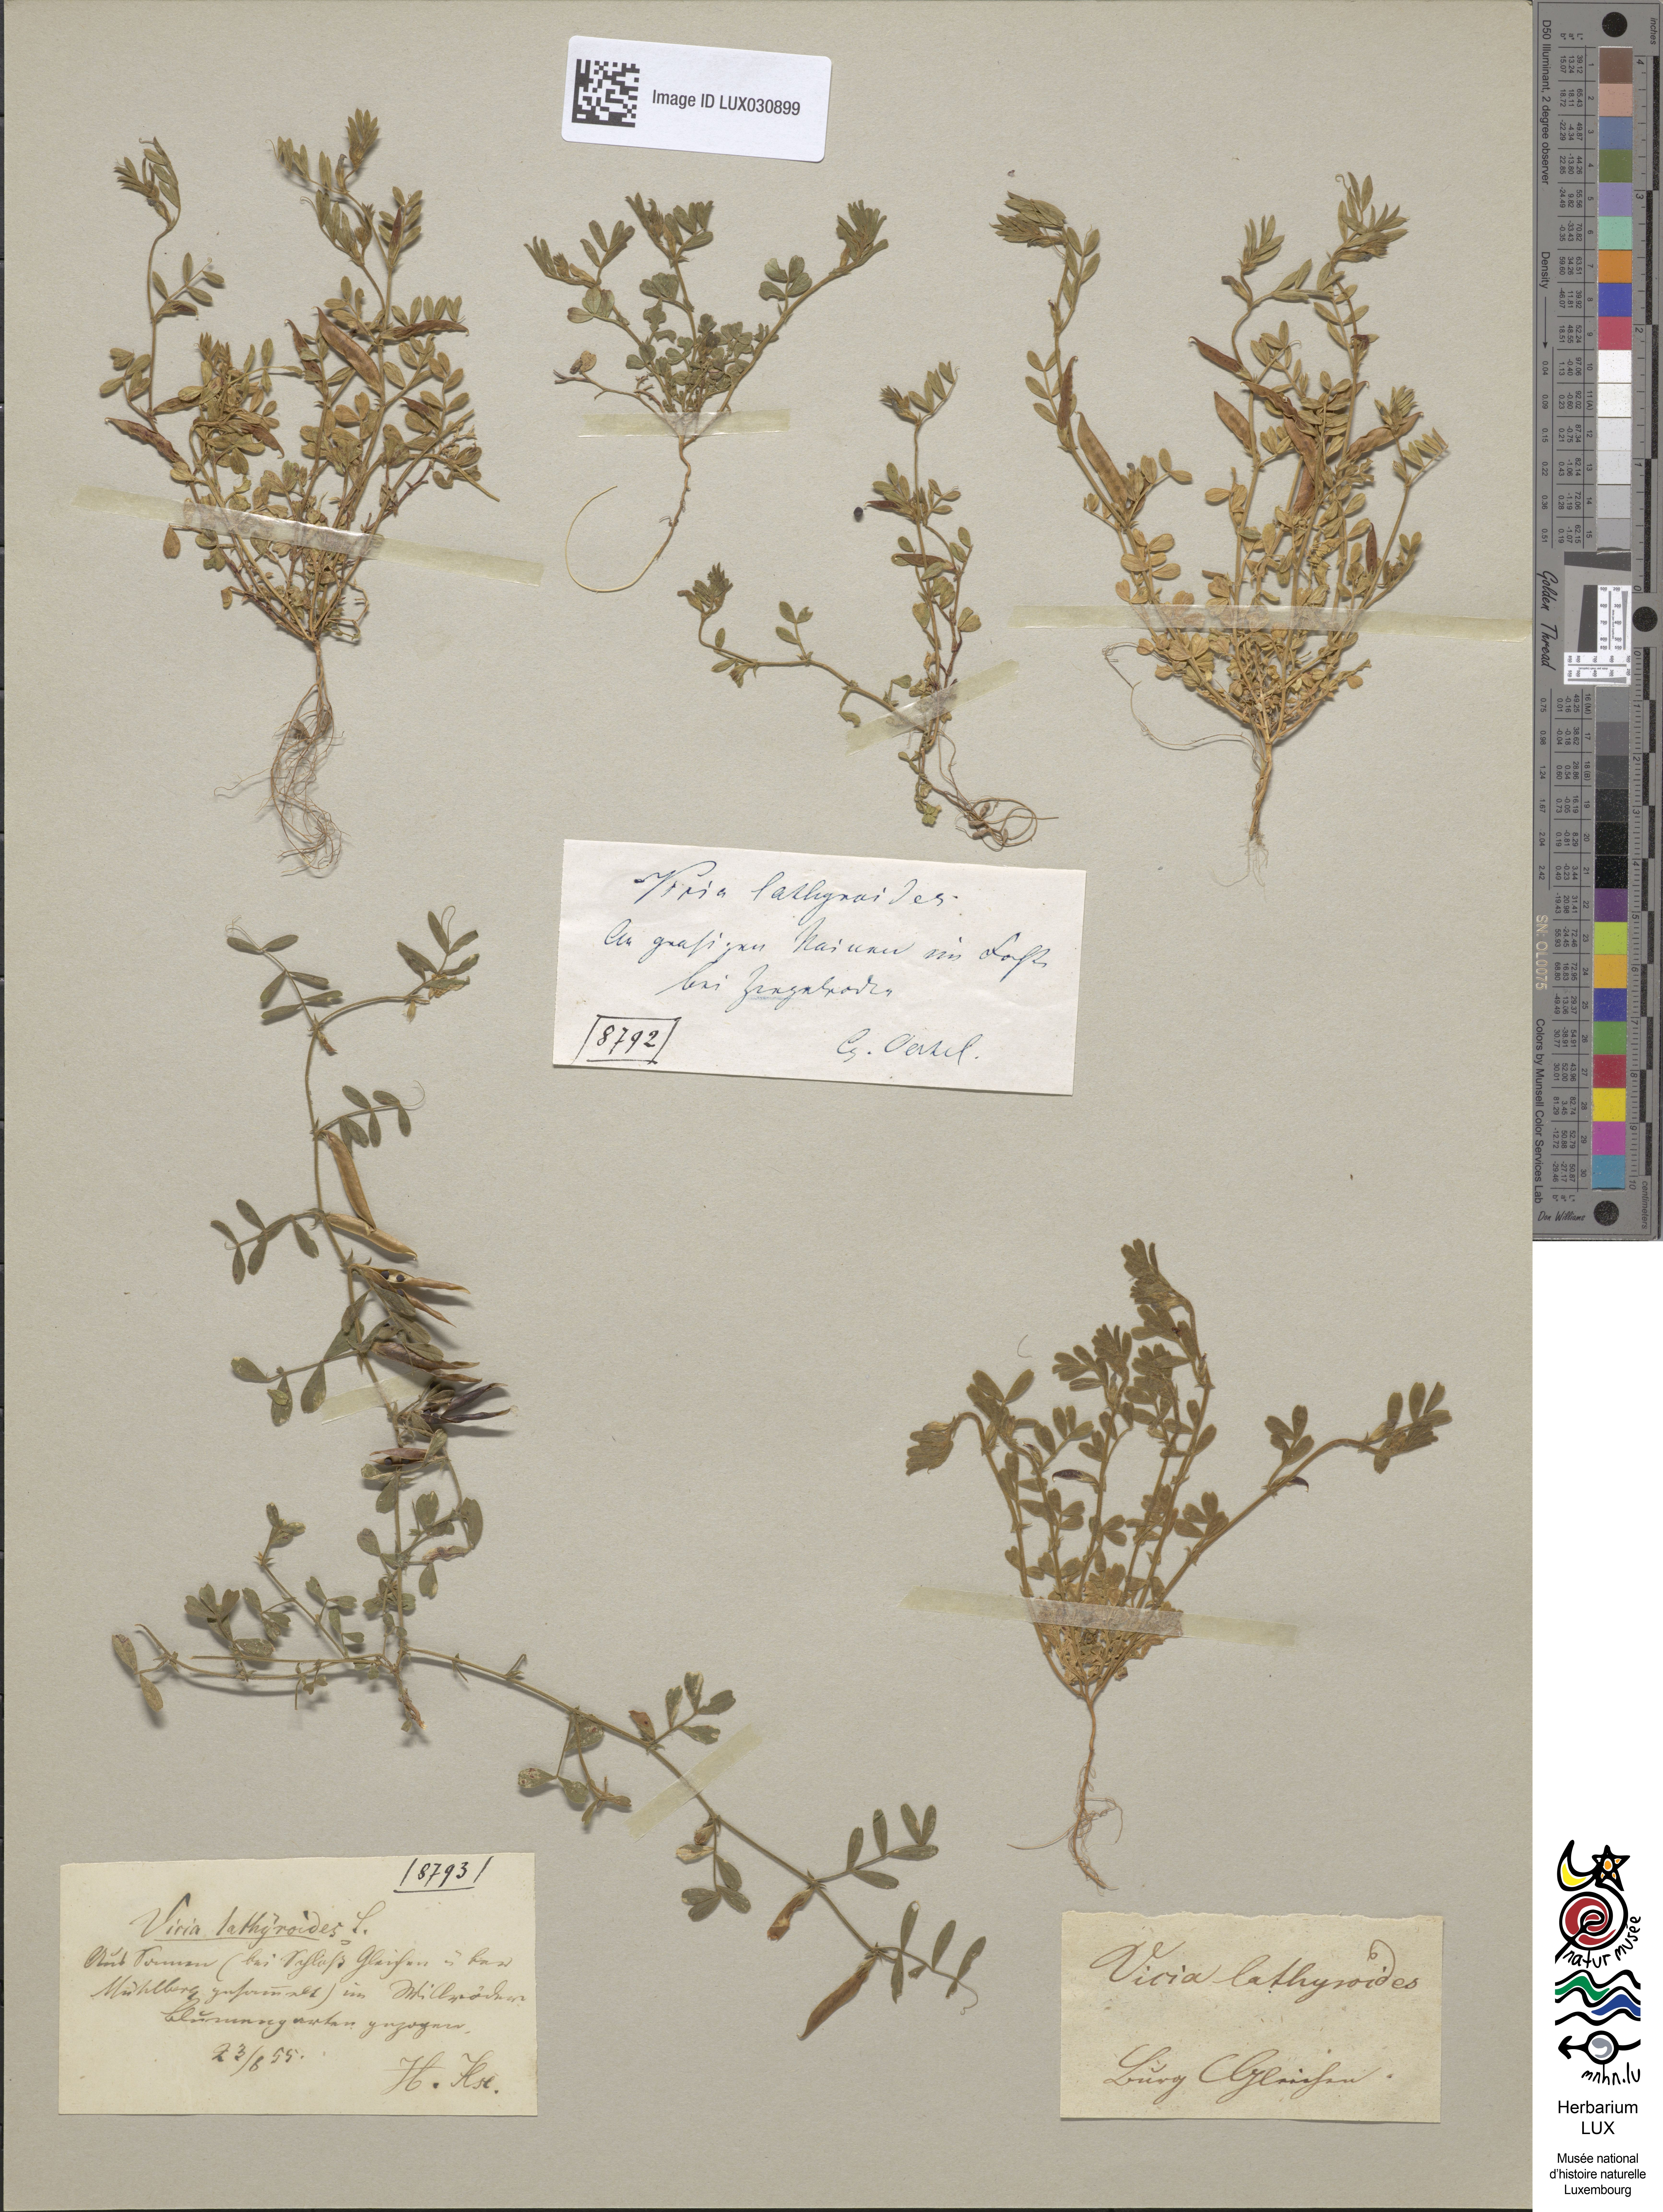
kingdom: Plantae
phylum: Tracheophyta
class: Magnoliopsida
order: Fabales
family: Fabaceae
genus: Vicia
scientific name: Vicia lathyroides
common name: Spring vetch
